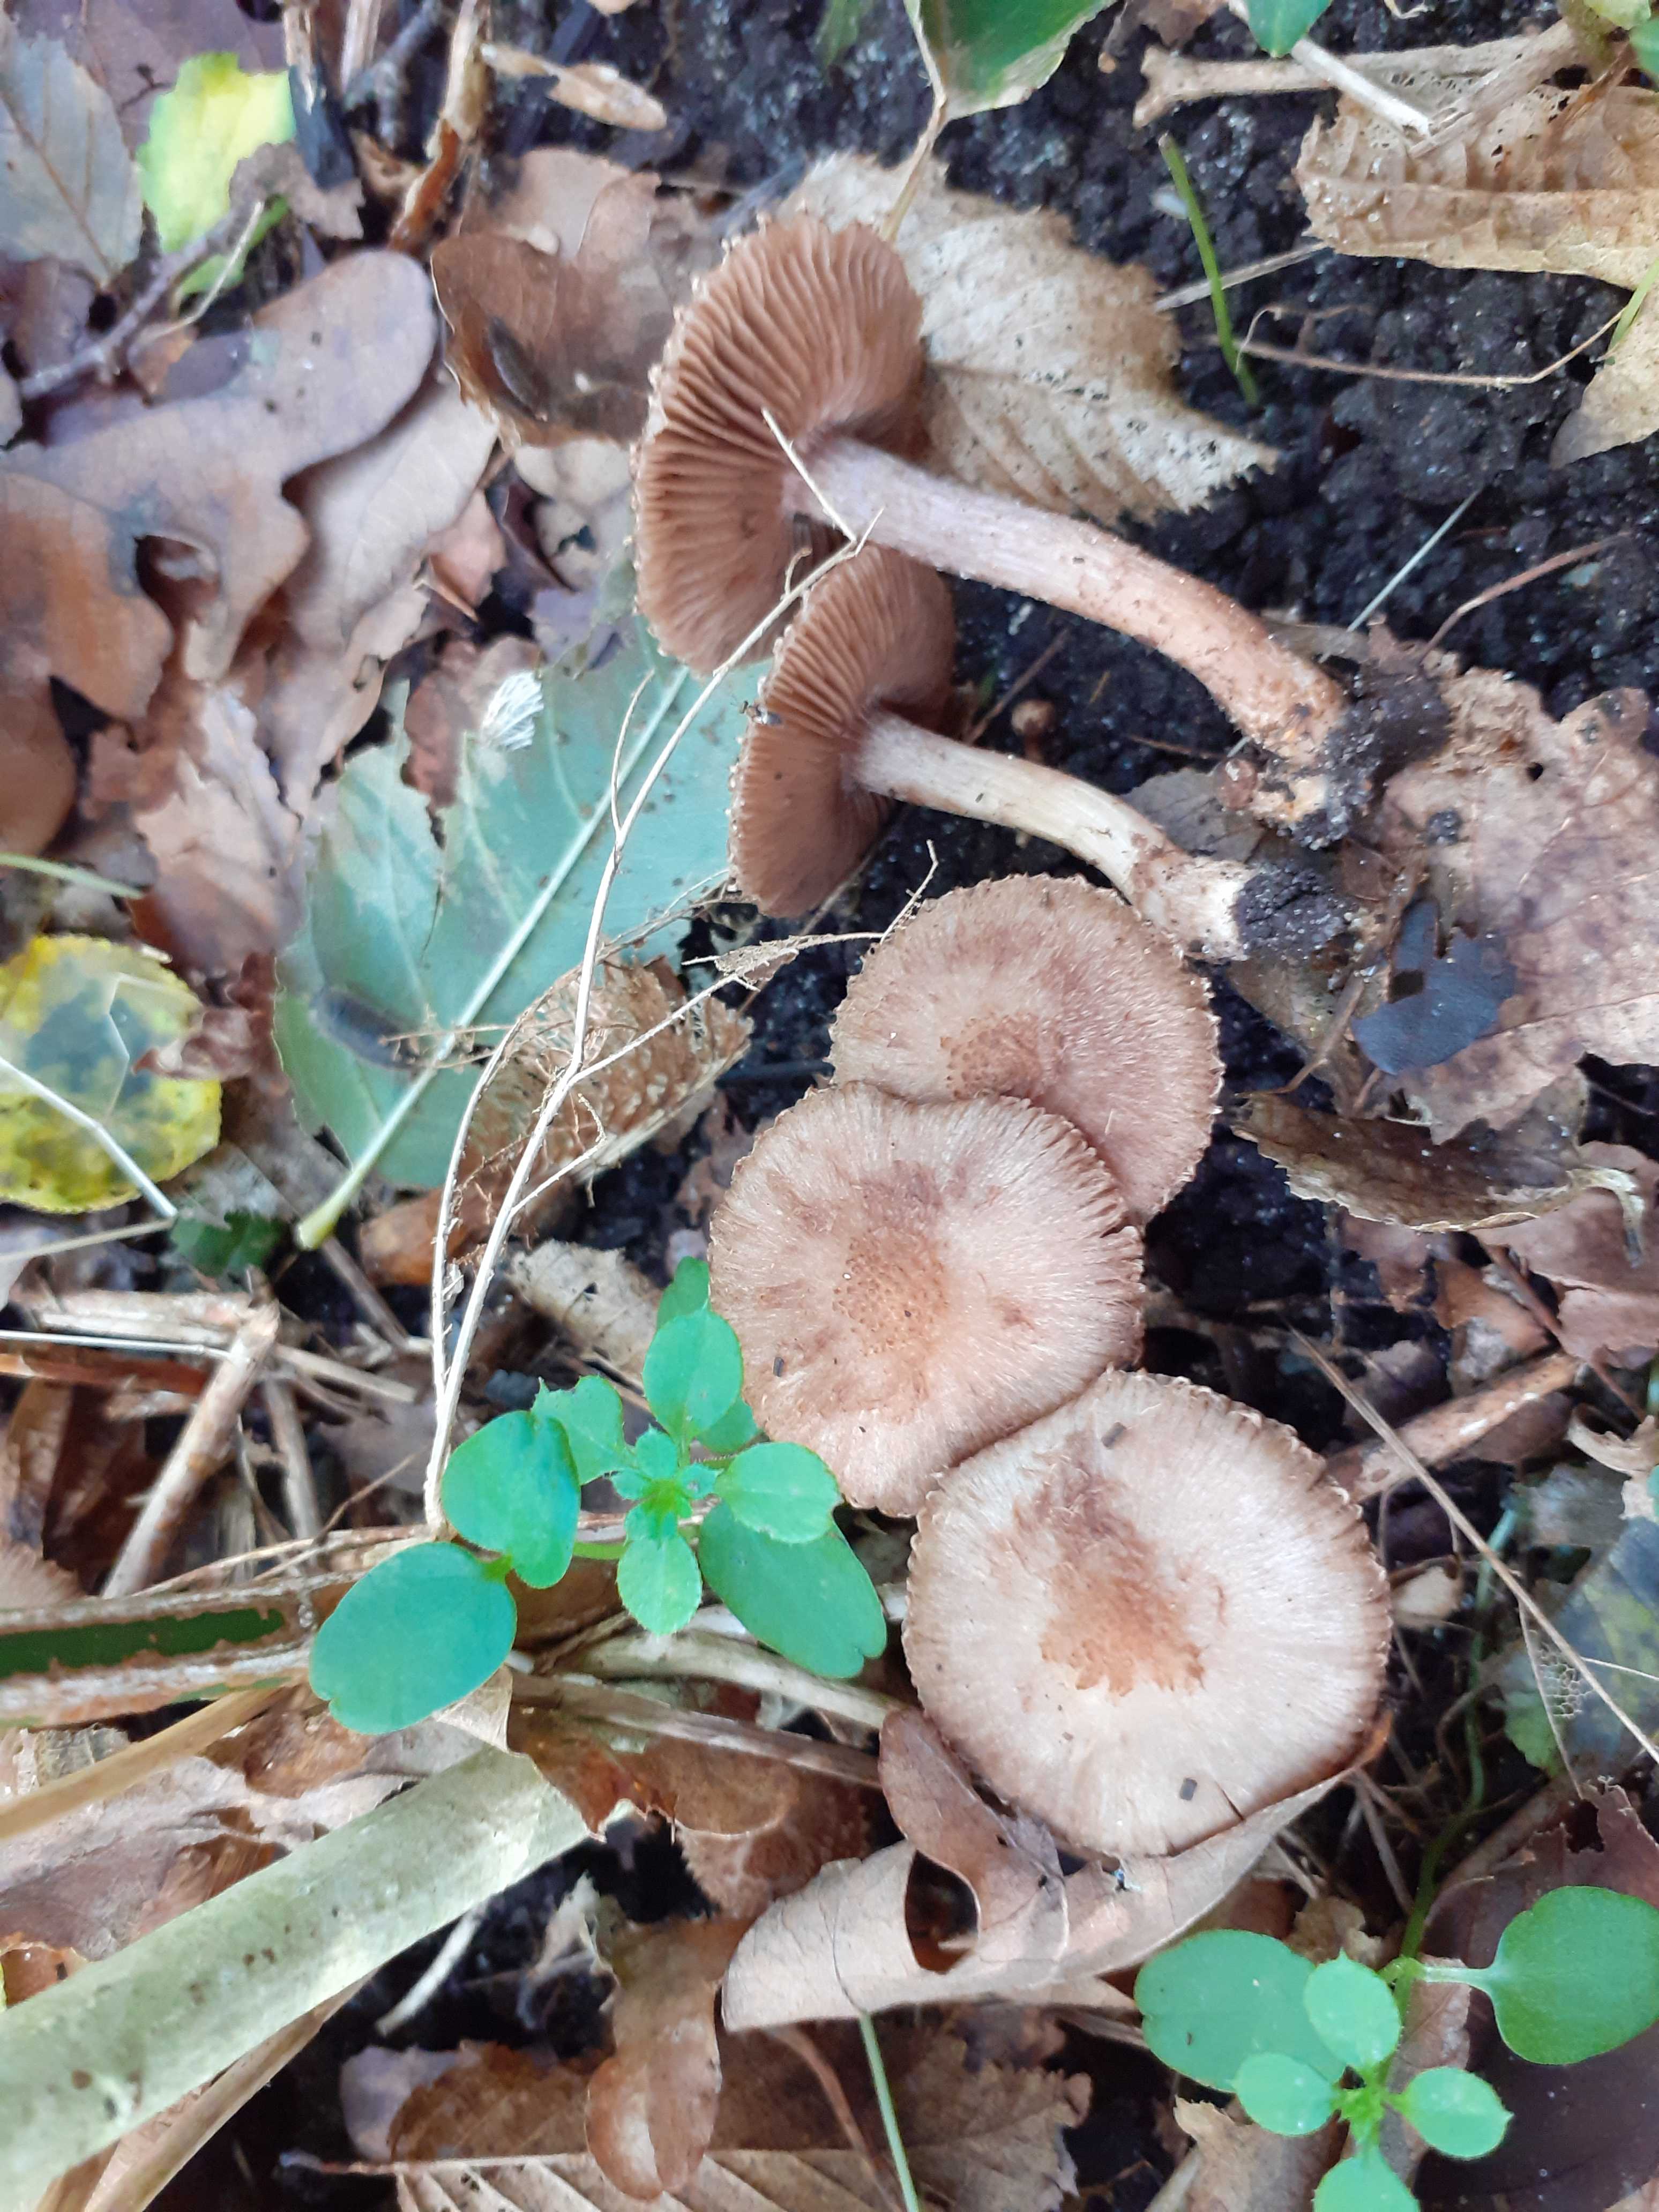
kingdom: Fungi
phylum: Basidiomycota
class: Agaricomycetes
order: Agaricales
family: Inocybaceae
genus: Inocybe
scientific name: Inocybe cincinnata
